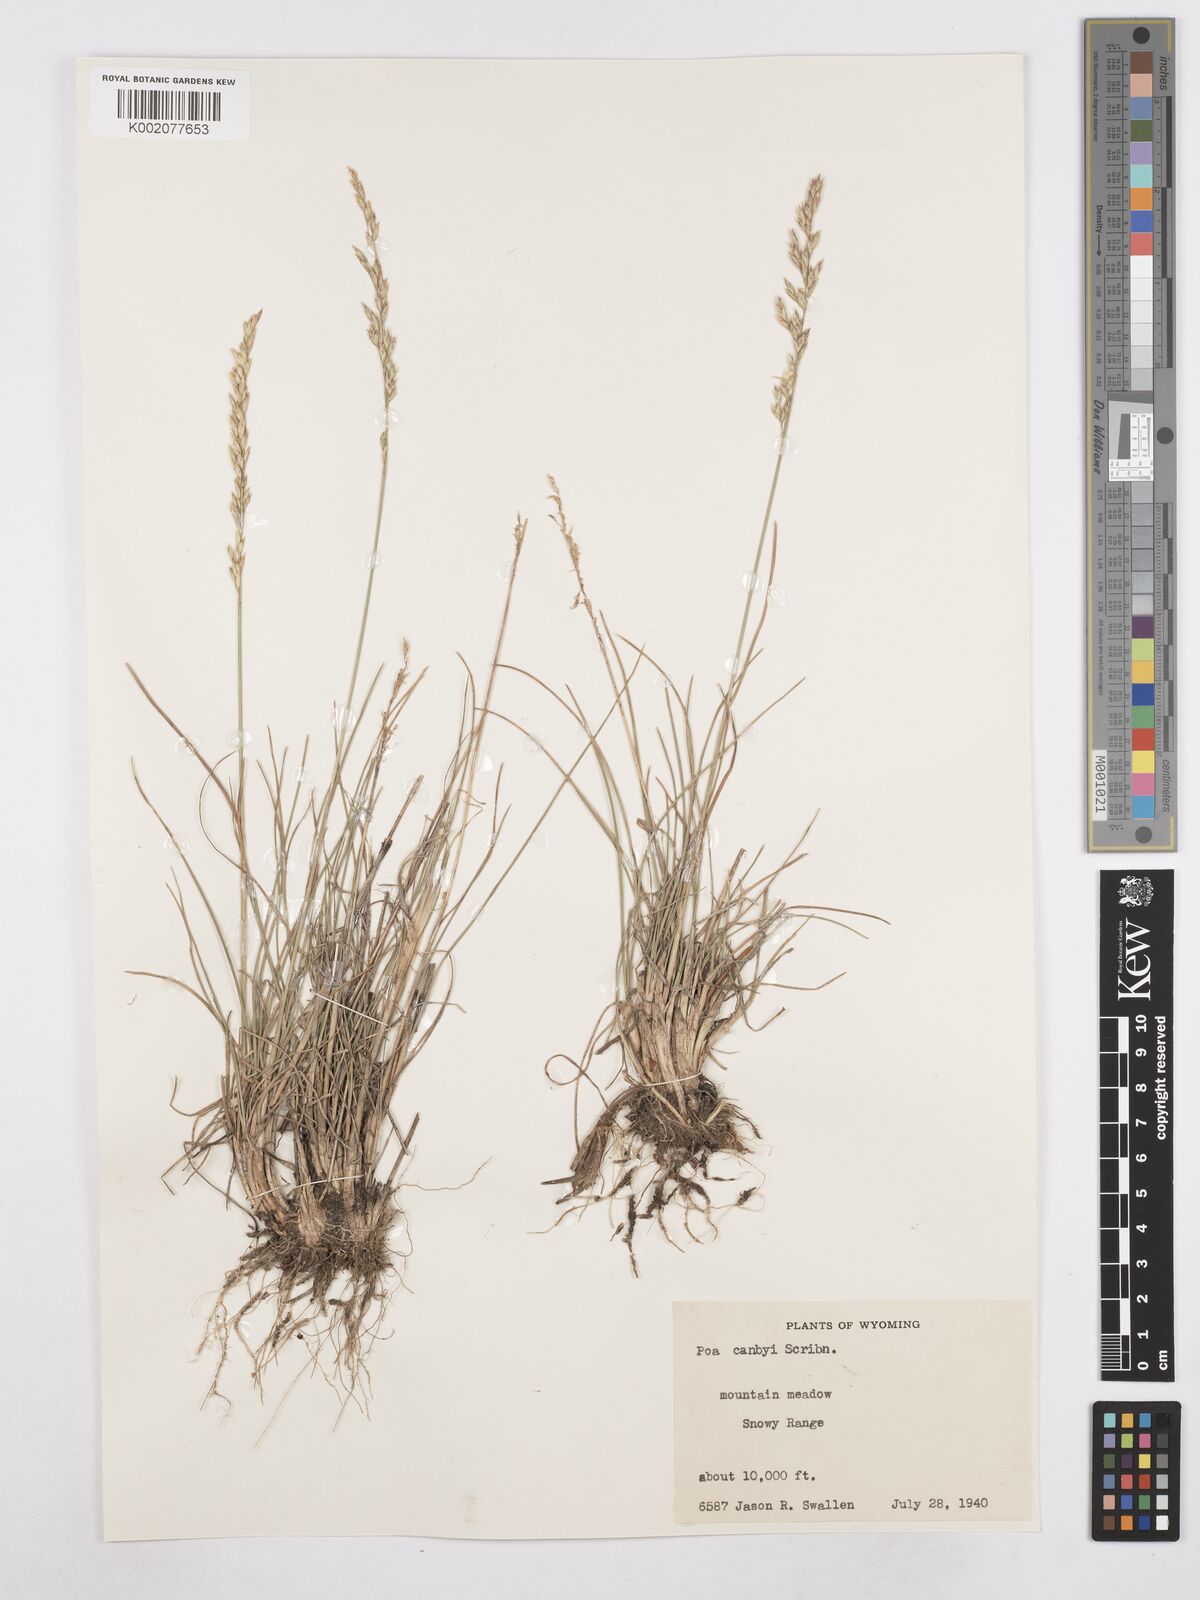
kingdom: Plantae
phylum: Tracheophyta
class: Liliopsida
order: Poales
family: Poaceae
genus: Poa
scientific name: Poa secunda
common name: Sandberg bluegrass
